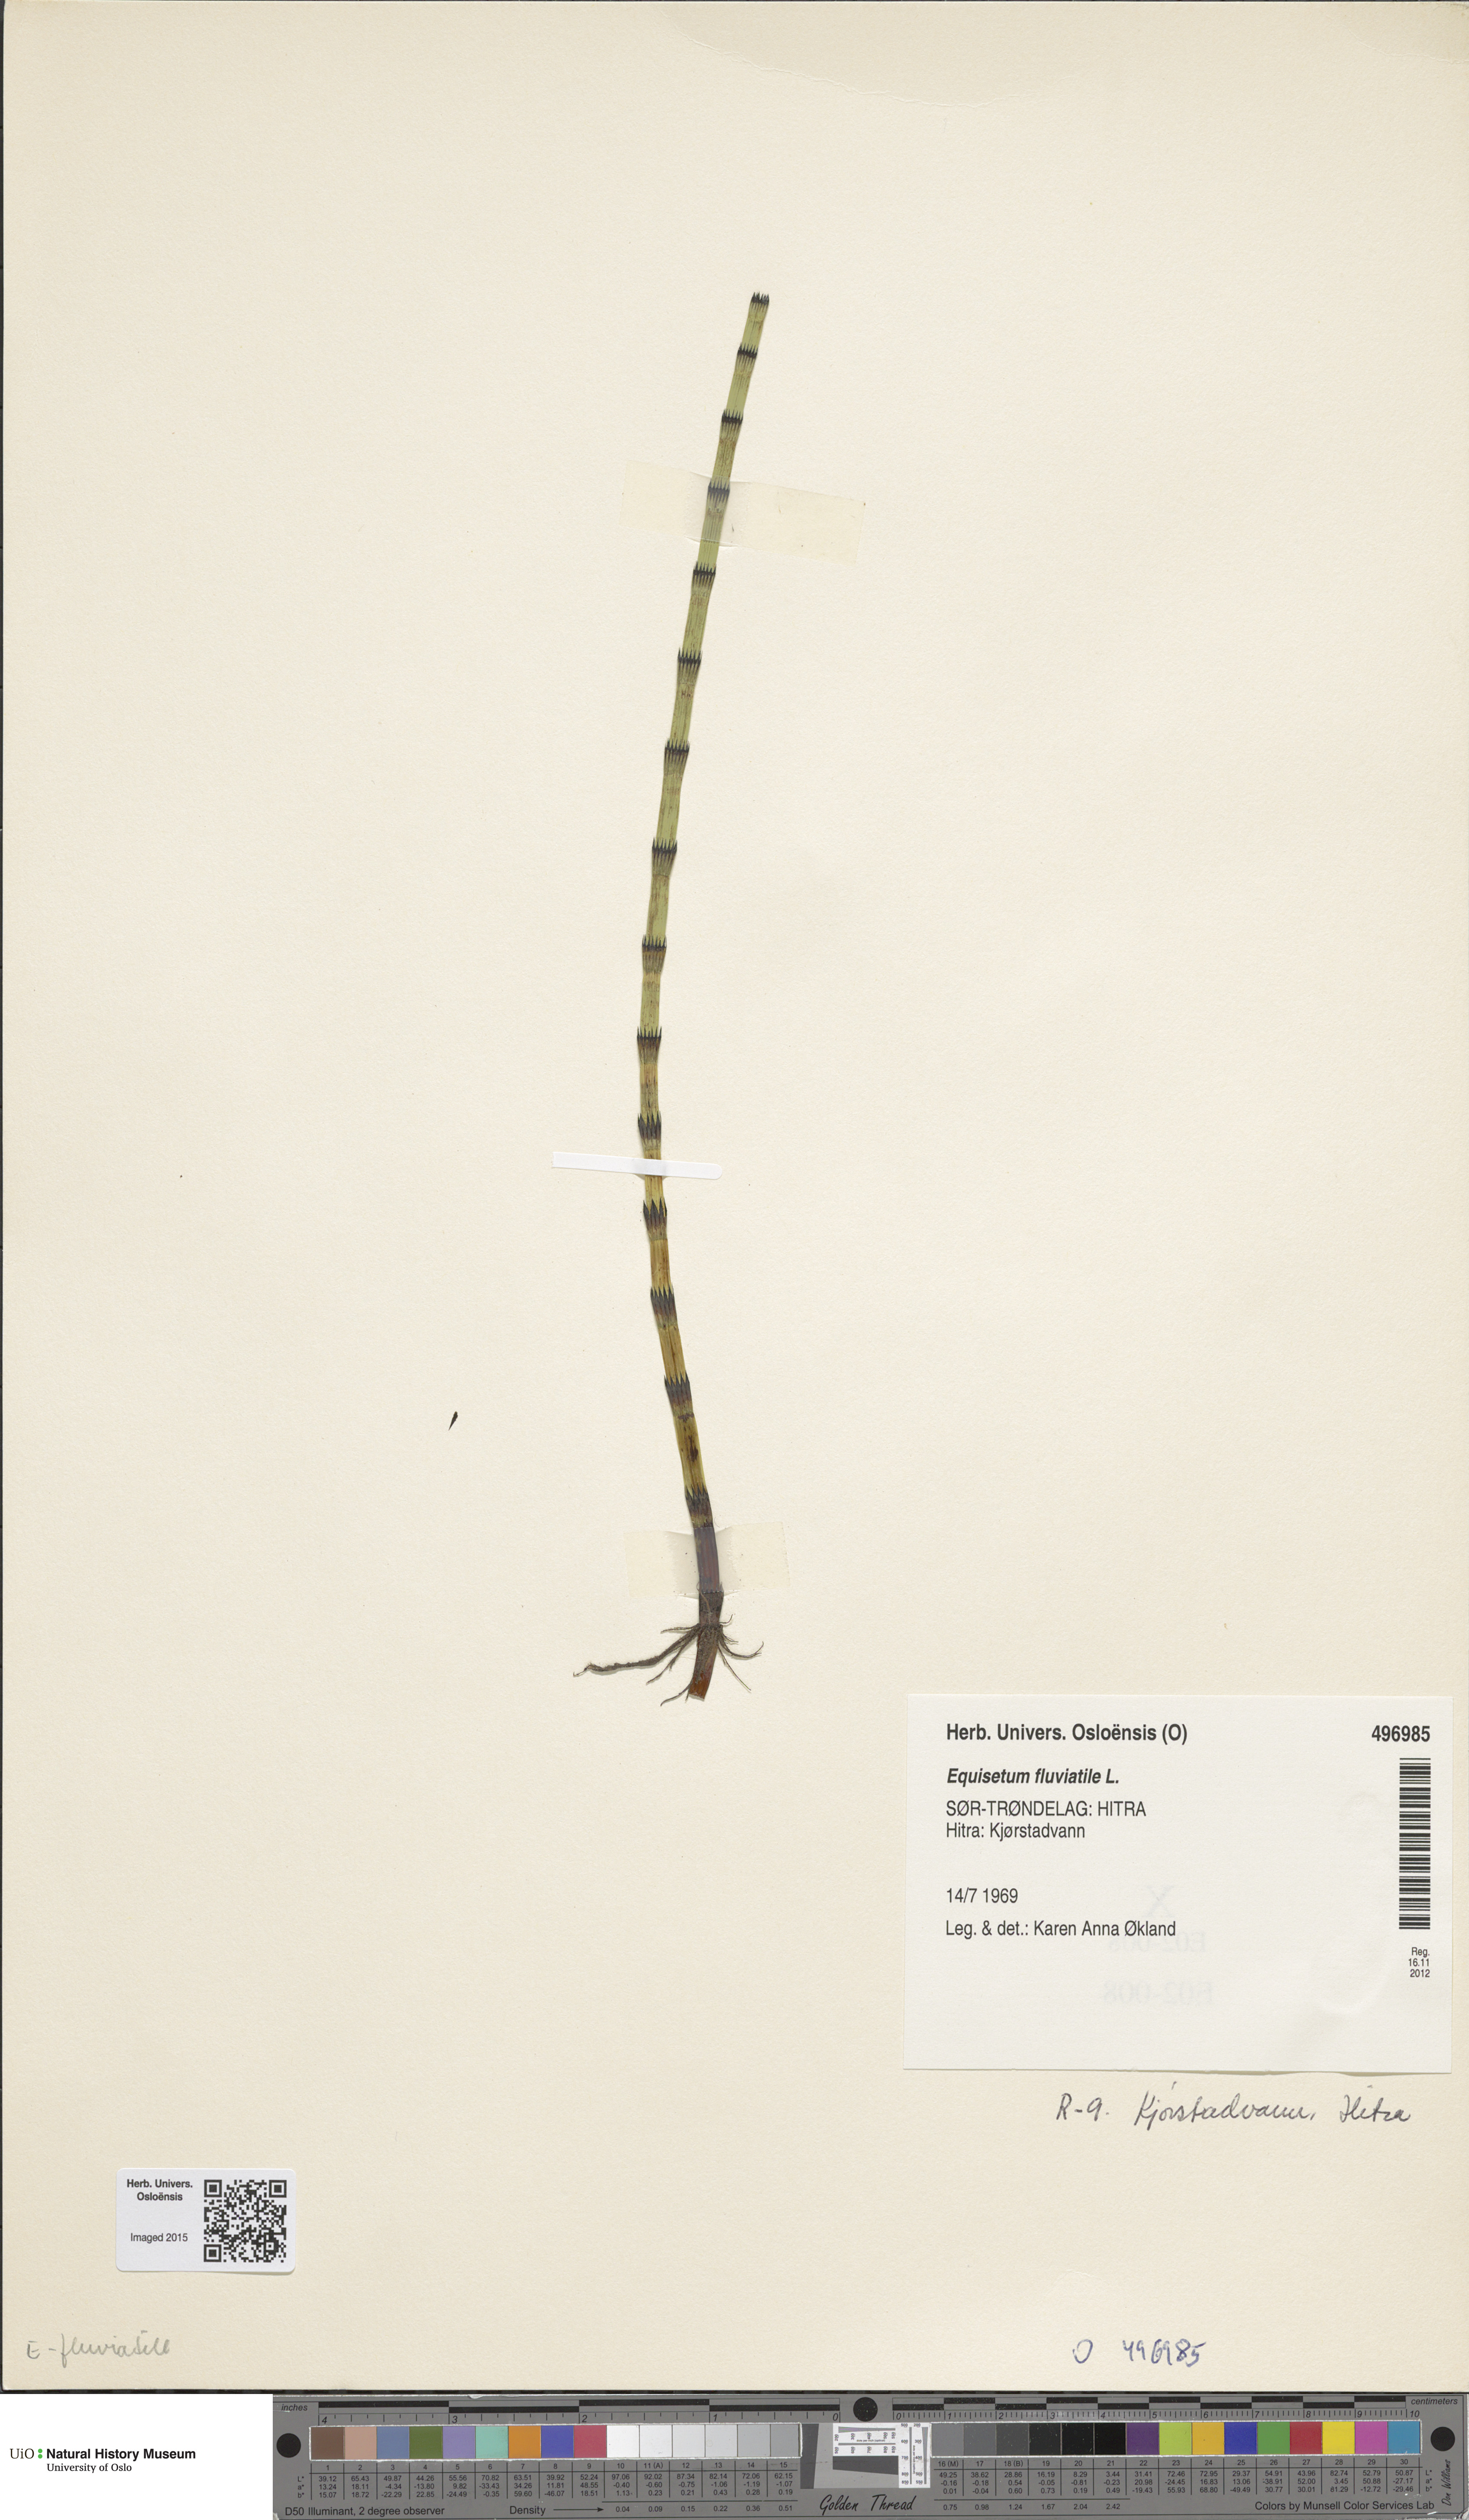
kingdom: Plantae
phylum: Tracheophyta
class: Polypodiopsida
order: Equisetales
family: Equisetaceae
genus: Equisetum
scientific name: Equisetum fluviatile
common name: Water horsetail
